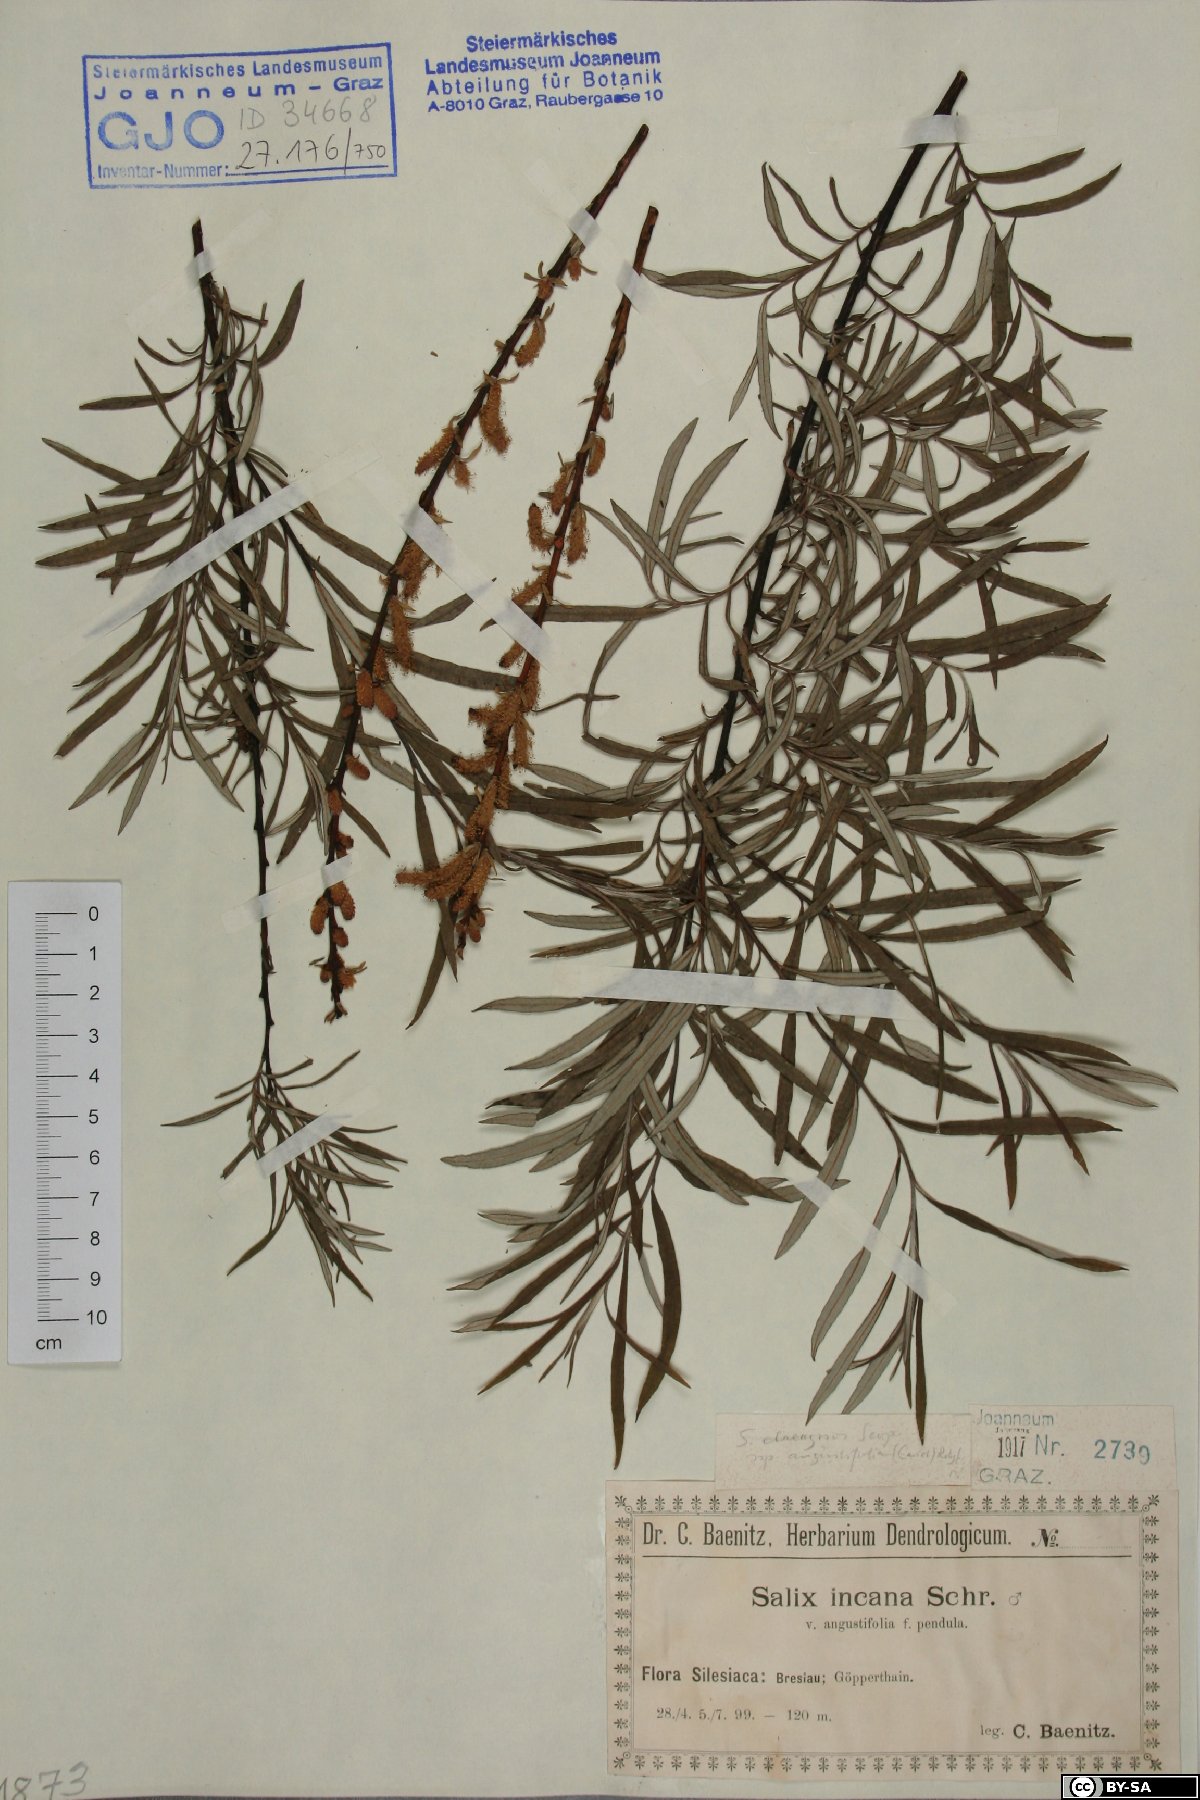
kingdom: Plantae
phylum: Tracheophyta
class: Magnoliopsida
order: Malpighiales
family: Salicaceae
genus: Salix
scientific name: Salix eleagnos
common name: Elaeagnus willow
